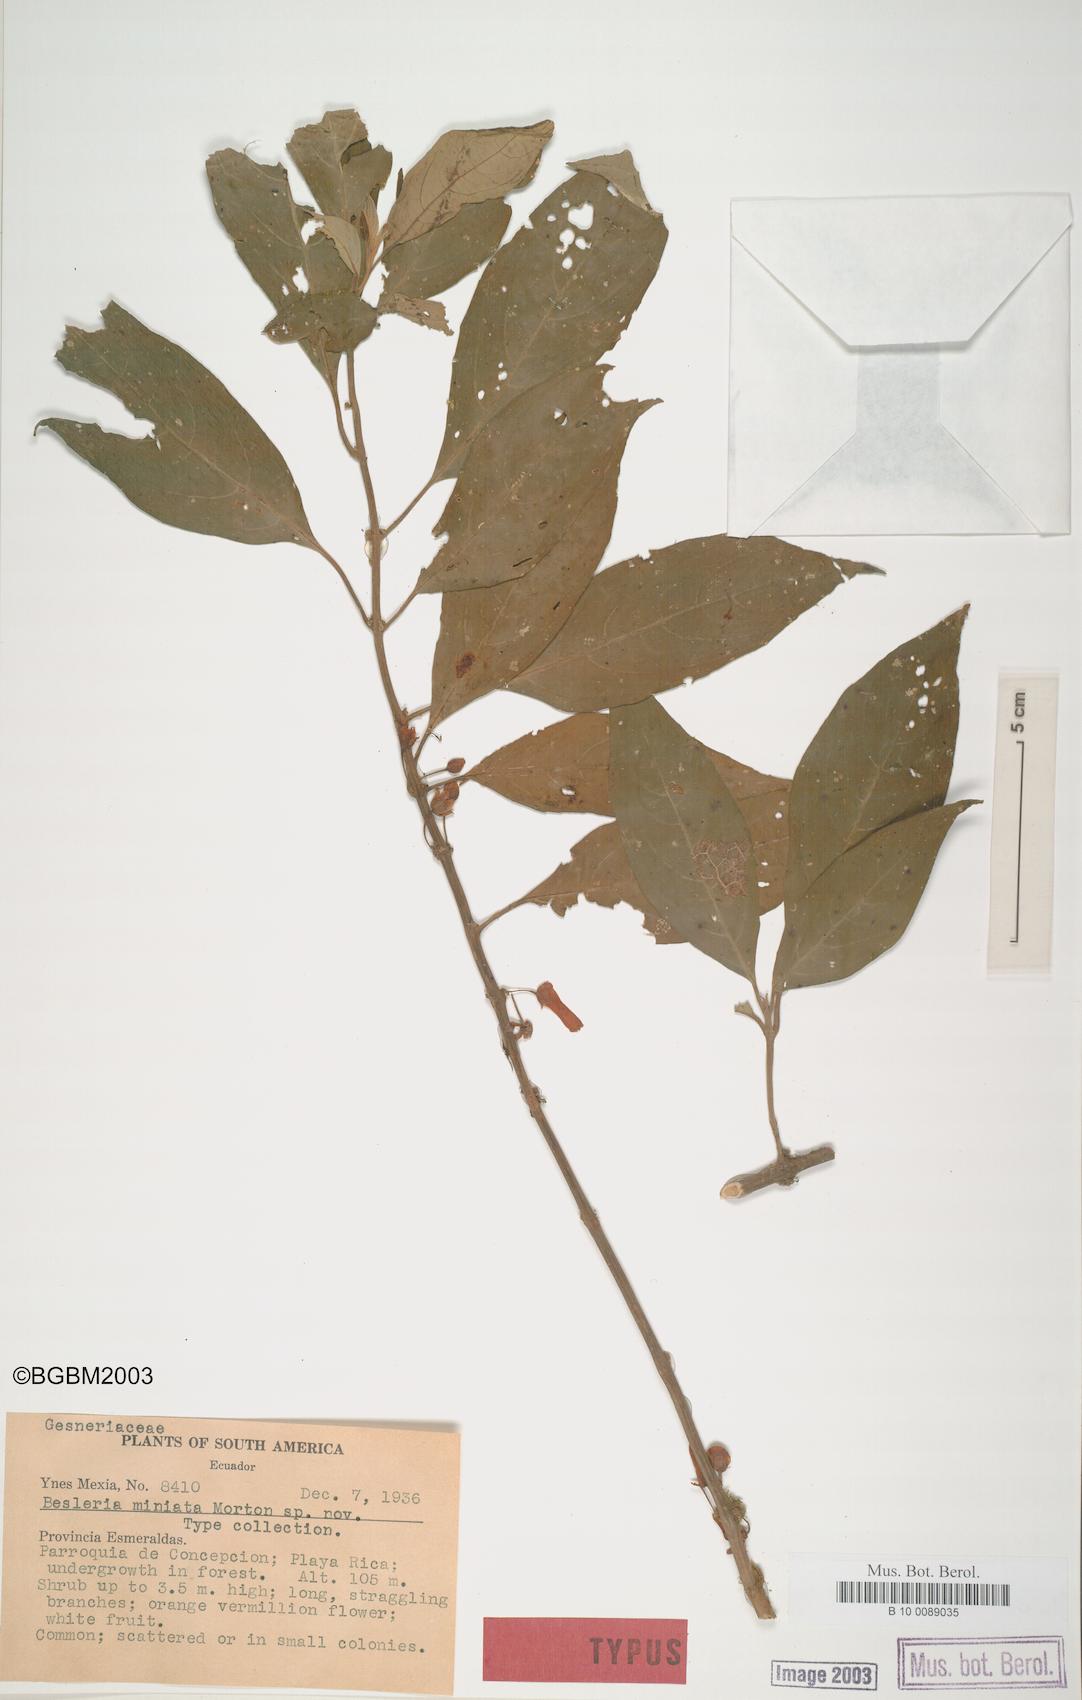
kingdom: Plantae
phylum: Tracheophyta
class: Magnoliopsida
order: Lamiales
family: Gesneriaceae
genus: Besleria
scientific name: Besleria miniata
